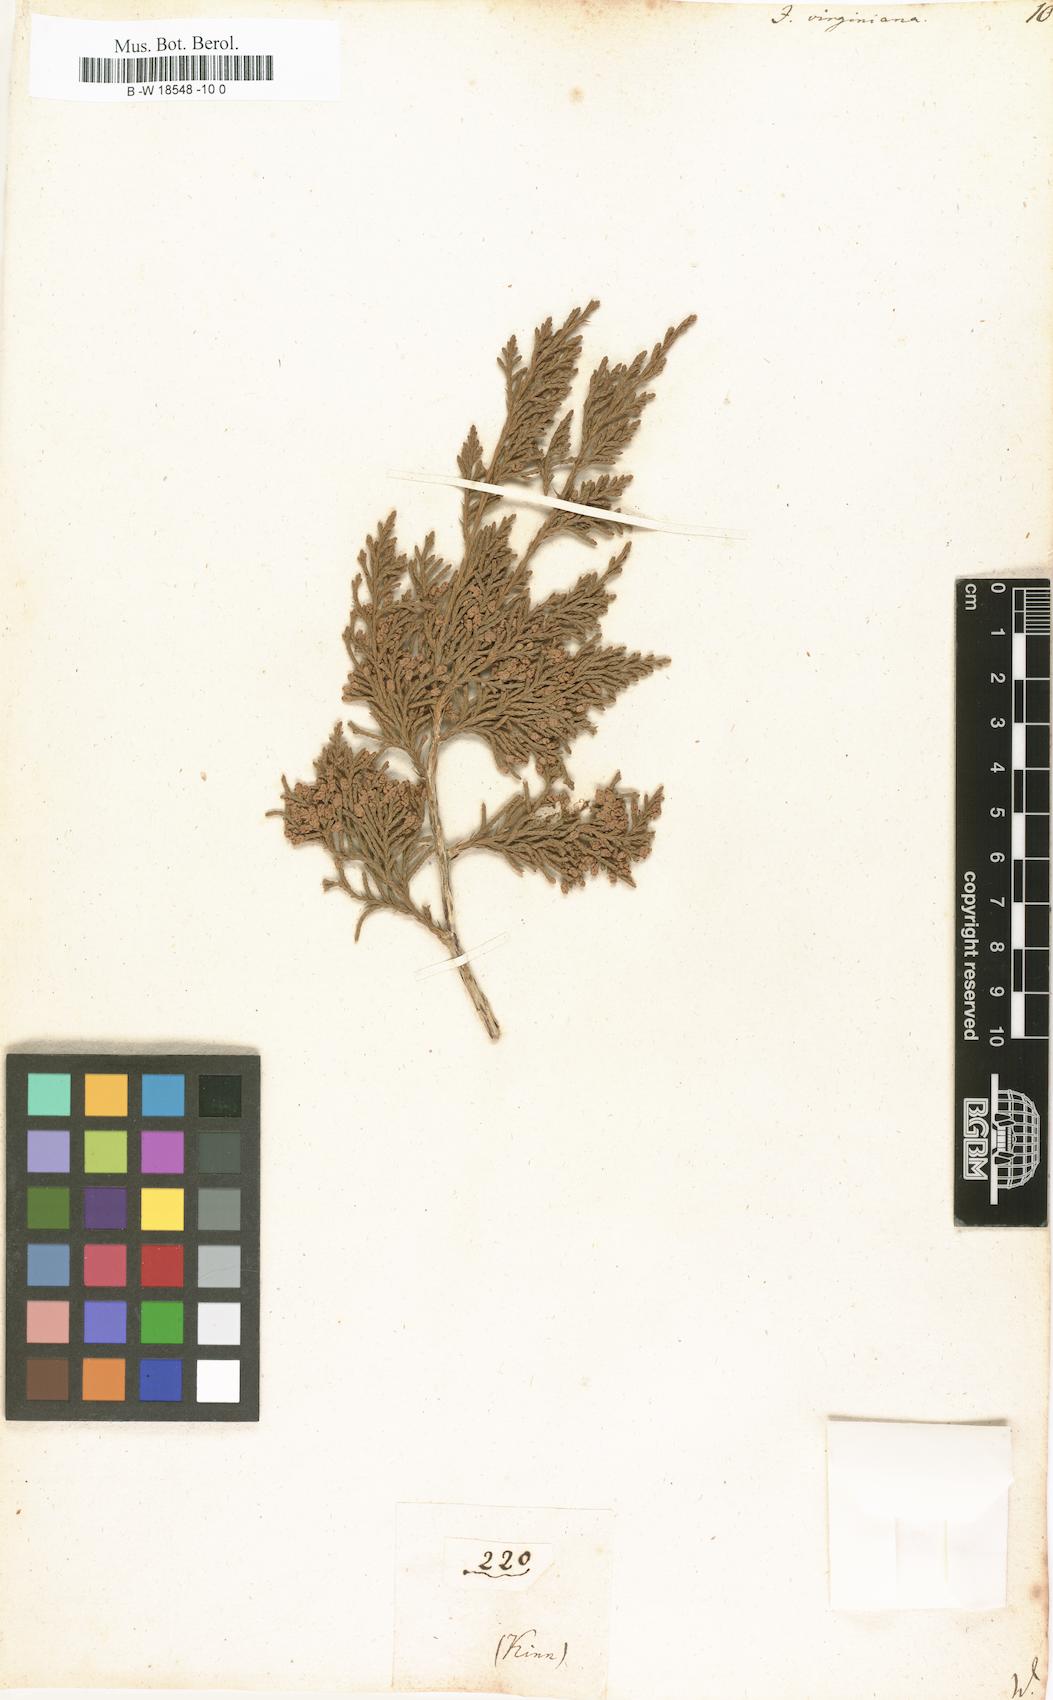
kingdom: Plantae
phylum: Tracheophyta
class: Pinopsida
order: Pinales
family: Cupressaceae
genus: Juniperus
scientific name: Juniperus virginiana
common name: Red juniper
